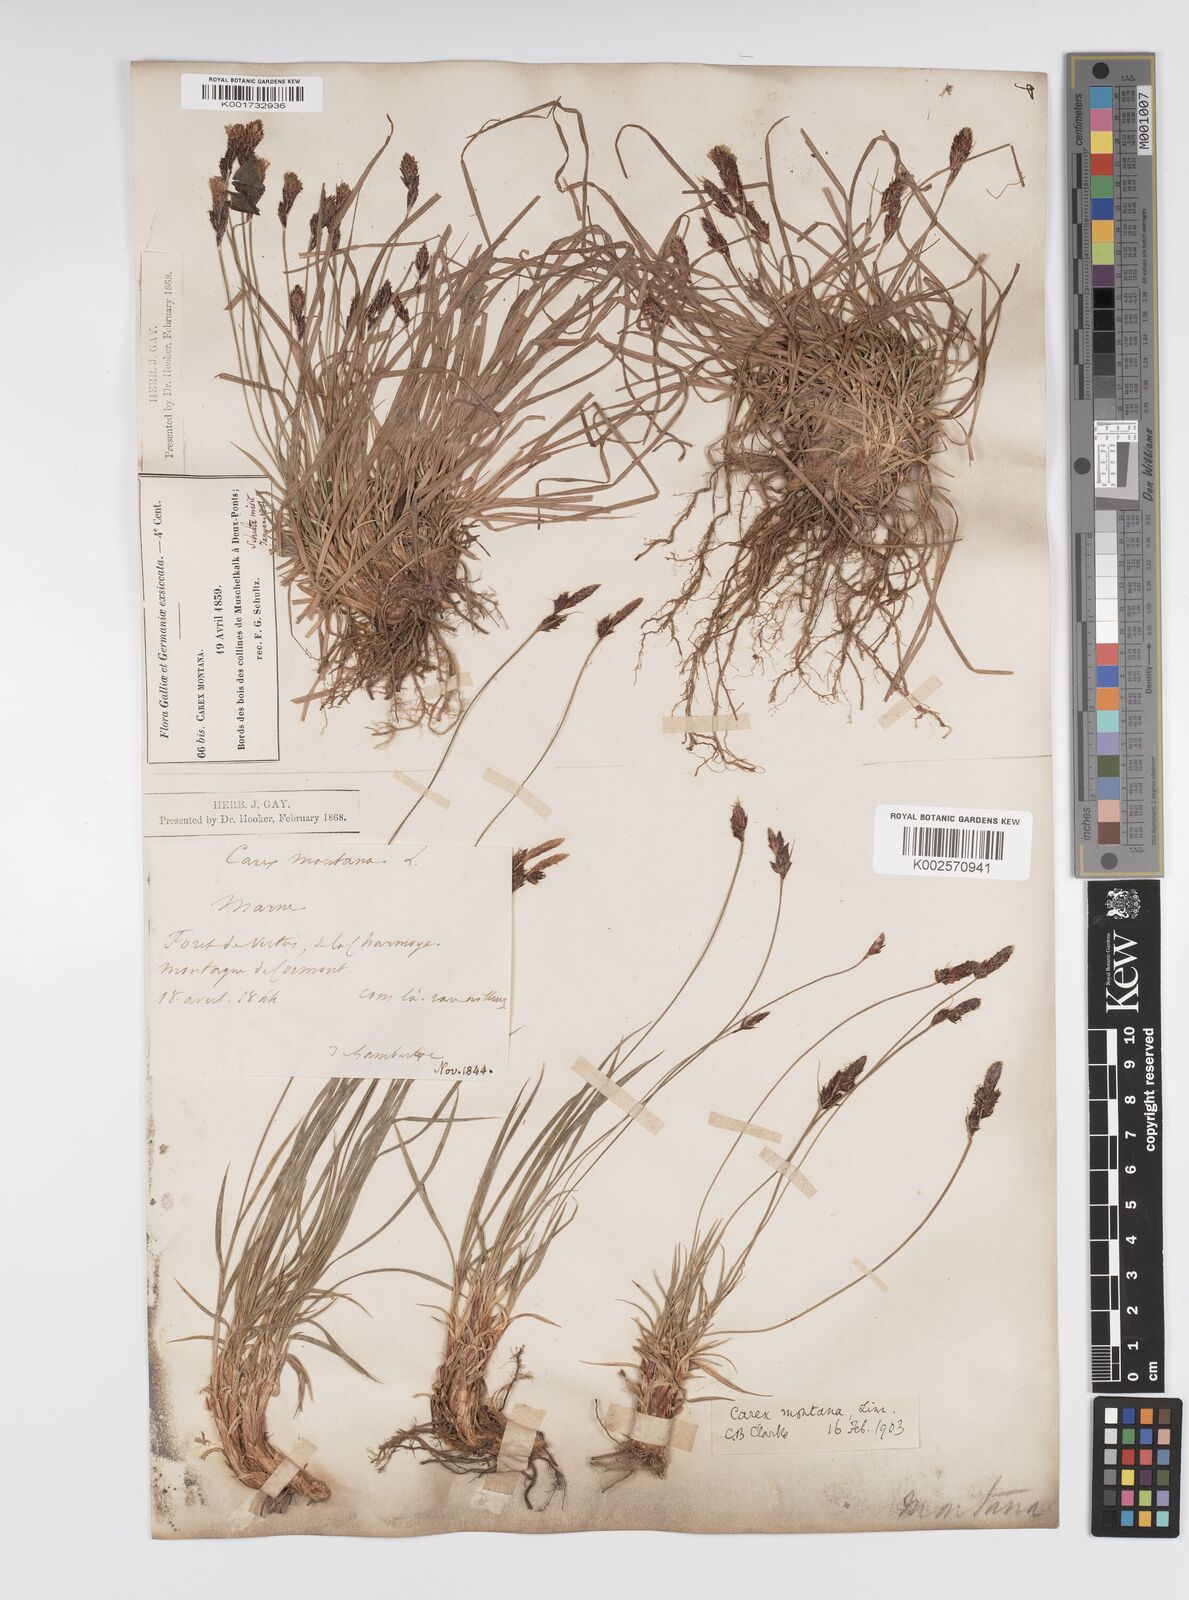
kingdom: Plantae
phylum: Tracheophyta
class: Liliopsida
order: Poales
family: Cyperaceae
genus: Carex
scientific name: Carex montana
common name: Soft-leaved sedge
